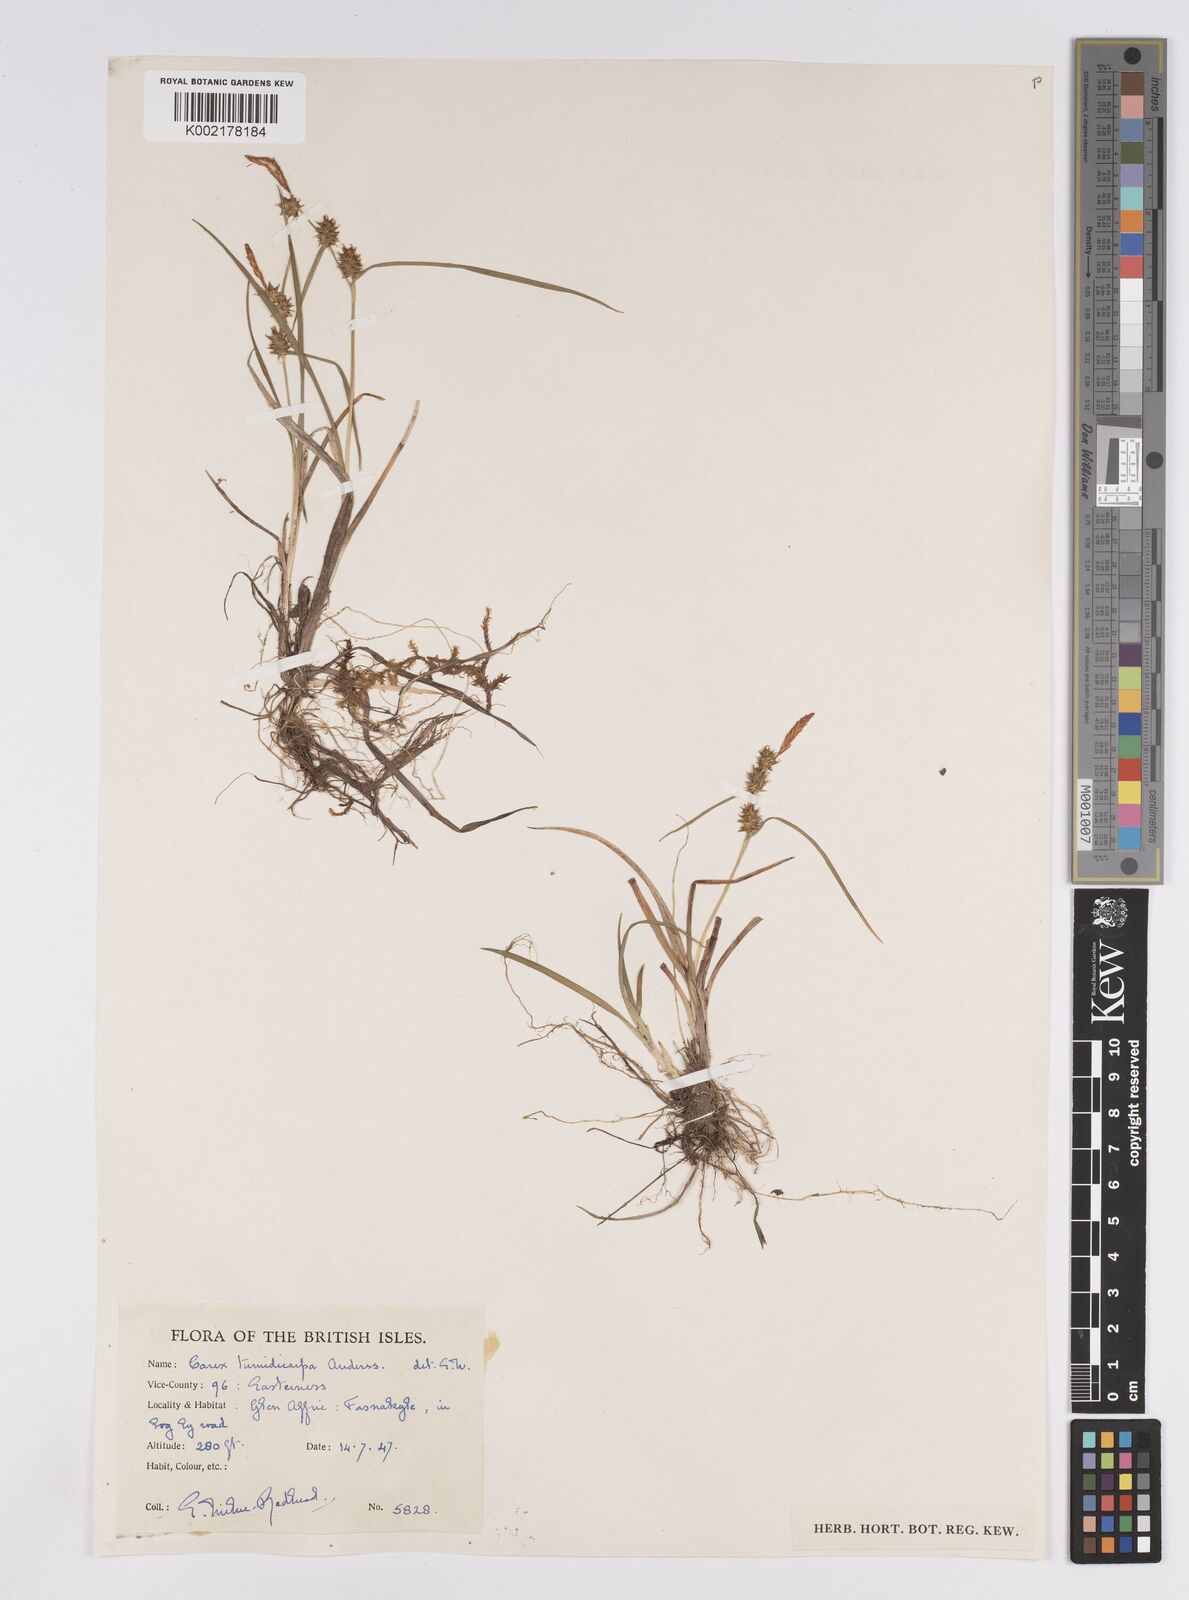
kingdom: Plantae
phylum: Tracheophyta
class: Liliopsida
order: Poales
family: Cyperaceae
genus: Carex
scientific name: Carex demissa
